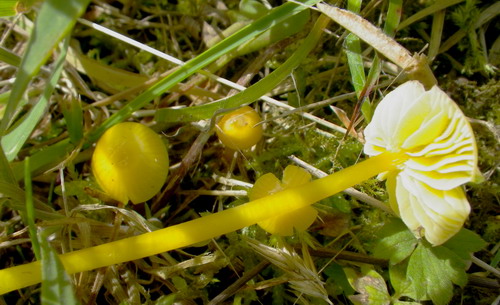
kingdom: Fungi
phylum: Basidiomycota
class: Agaricomycetes
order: Agaricales
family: Hygrophoraceae
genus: Hygrocybe
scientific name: Hygrocybe glutinipes
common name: slimstokket vokshat
